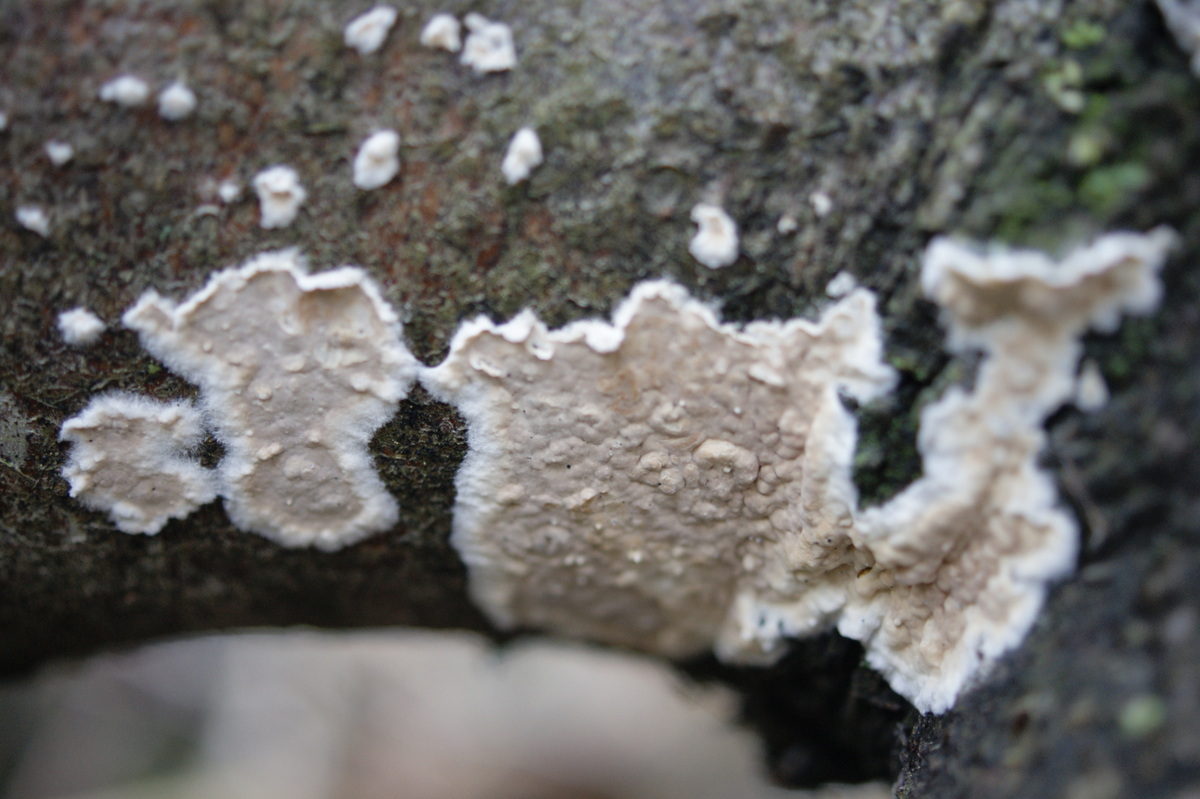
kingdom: Fungi
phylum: Basidiomycota
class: Agaricomycetes
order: Agaricales
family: Physalacriaceae
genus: Cylindrobasidium
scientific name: Cylindrobasidium evolvens
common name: sprækkehinde
